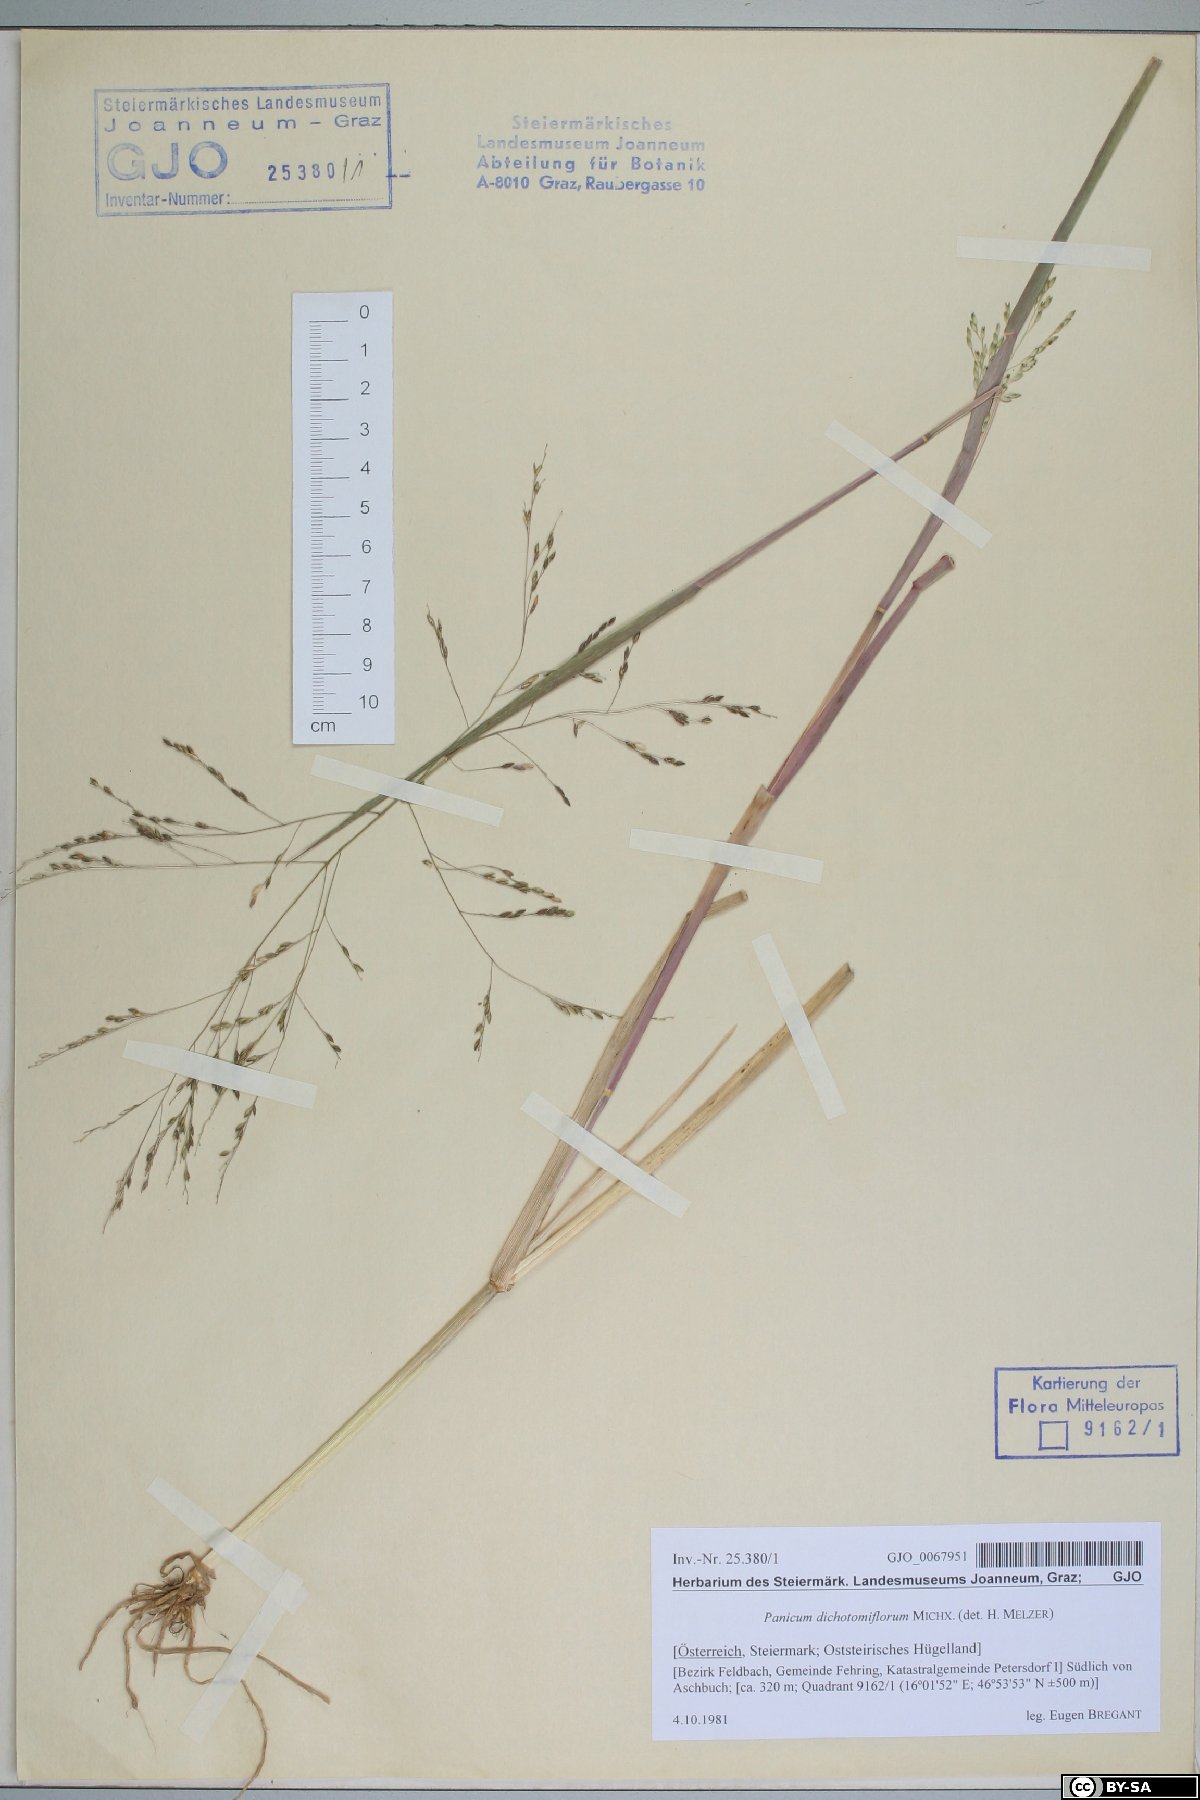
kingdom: Plantae
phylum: Tracheophyta
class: Liliopsida
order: Poales
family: Poaceae
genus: Panicum
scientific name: Panicum dichotomiflorum
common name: Autumn millet
